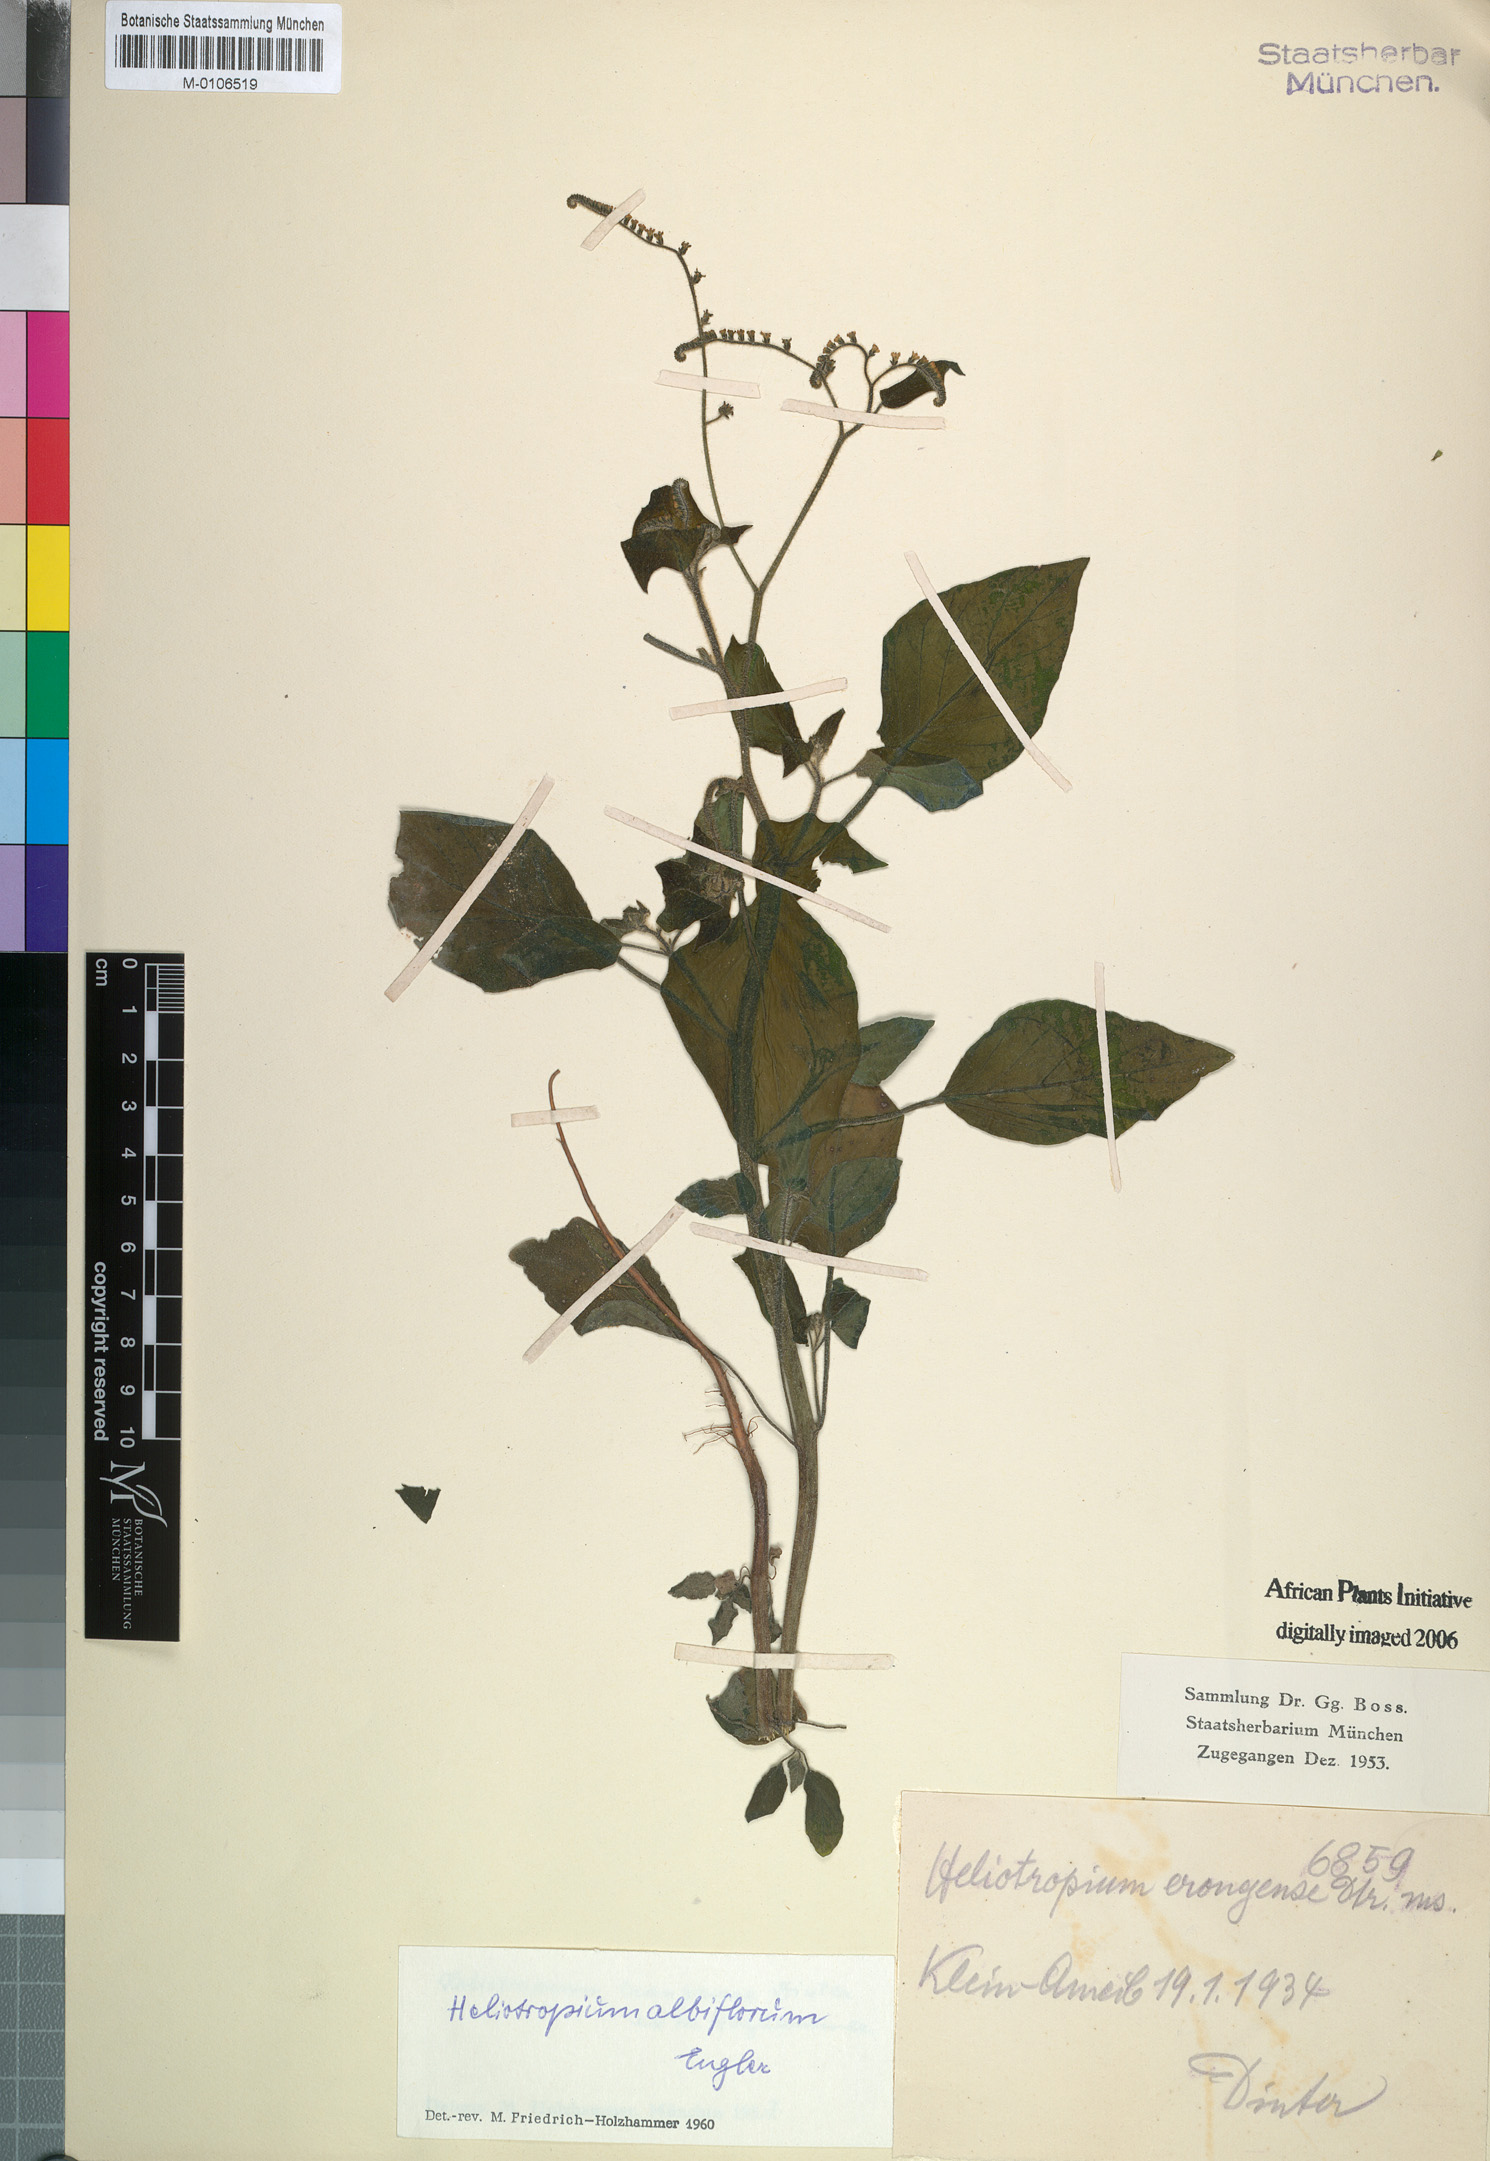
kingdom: Plantae
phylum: Tracheophyta
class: Magnoliopsida
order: Boraginales
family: Heliotropiaceae
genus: Heliotropium
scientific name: Heliotropium albiflorum
